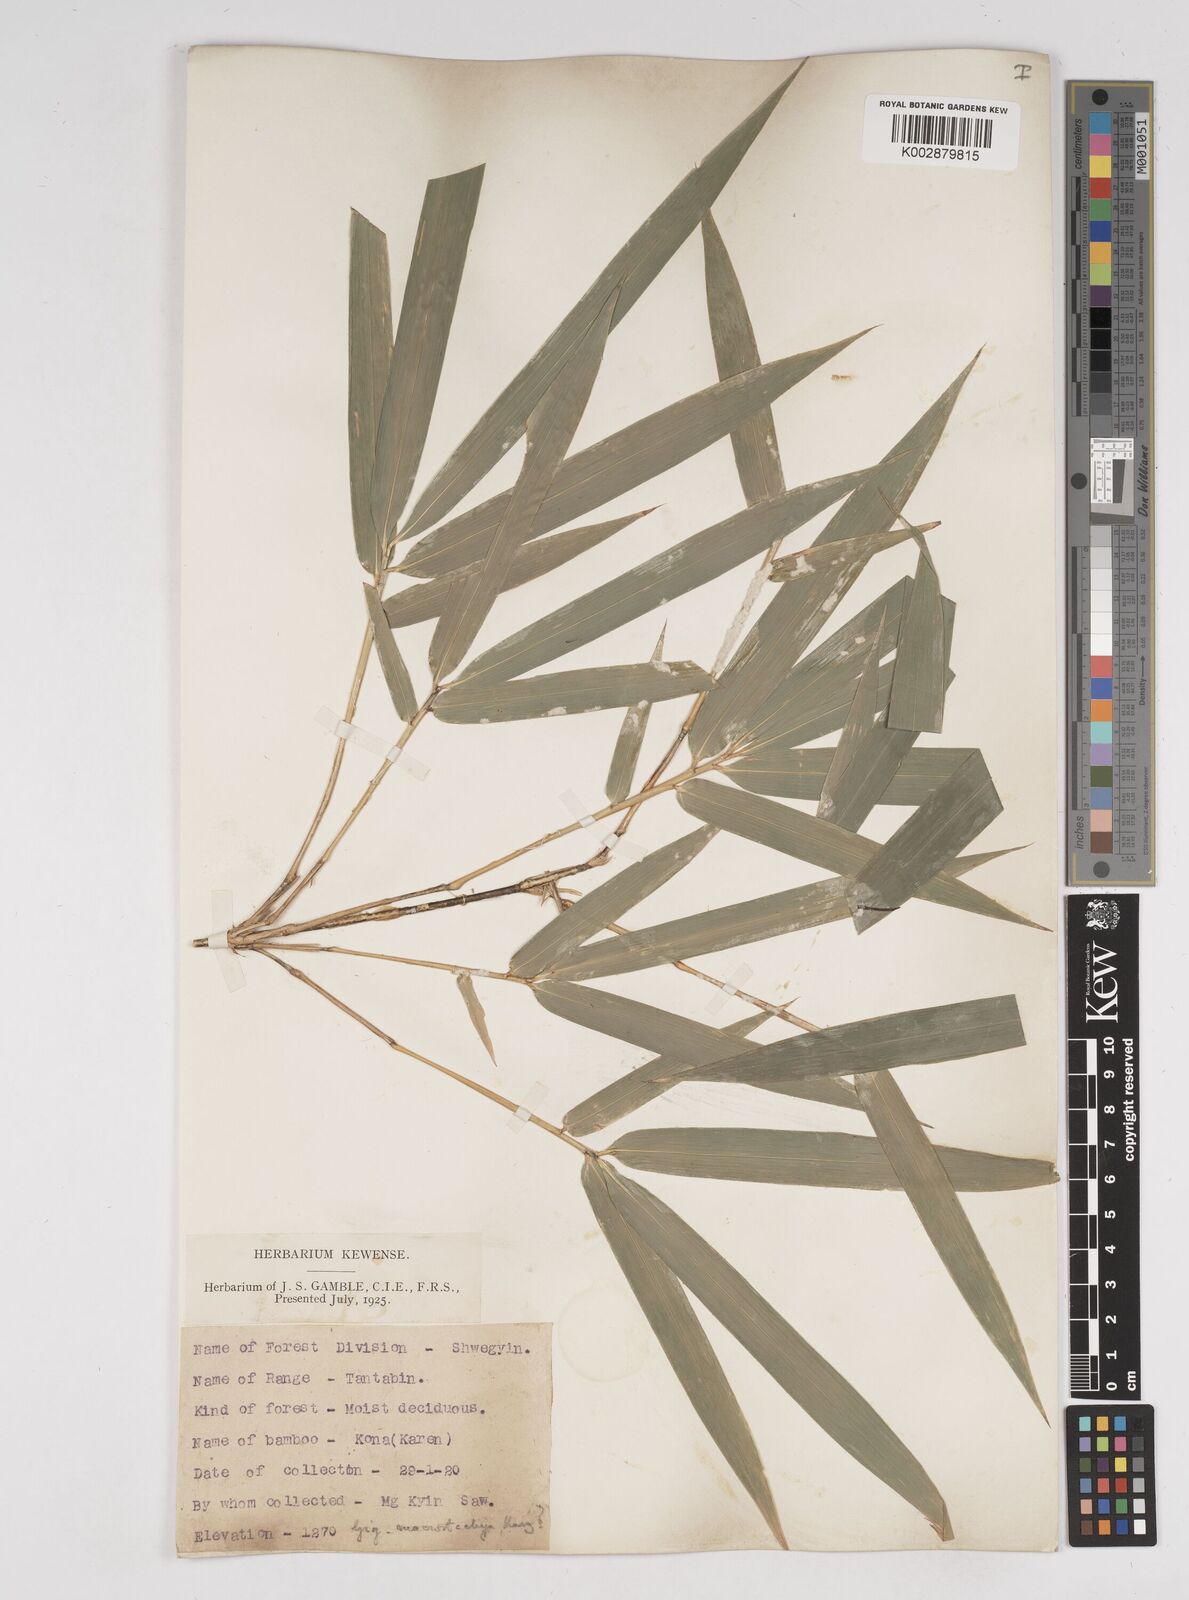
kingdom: Plantae
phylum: Tracheophyta
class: Liliopsida
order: Poales
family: Poaceae
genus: Gigantochloa
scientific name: Gigantochloa macrostachya
